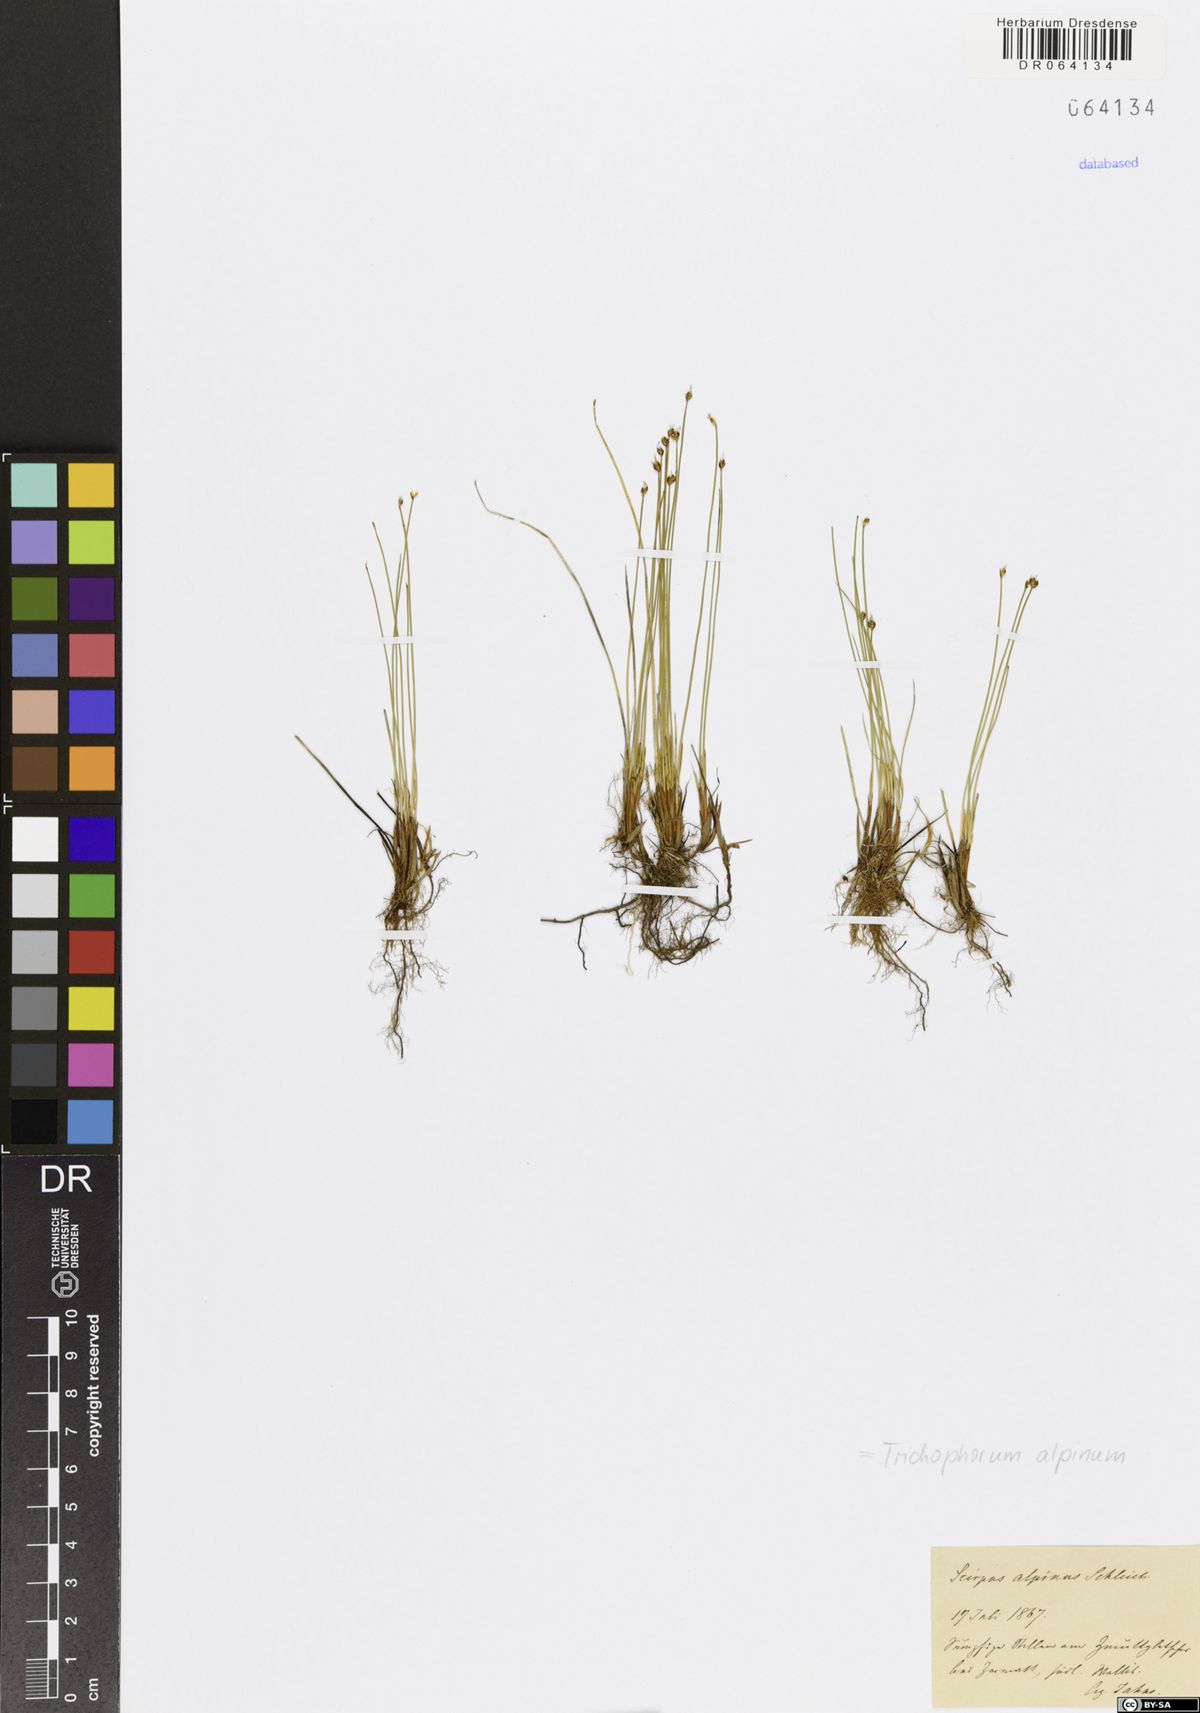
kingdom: Plantae
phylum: Tracheophyta
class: Liliopsida
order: Poales
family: Cyperaceae
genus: Trichophorum
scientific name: Trichophorum alpinum
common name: Alpine bulrush
